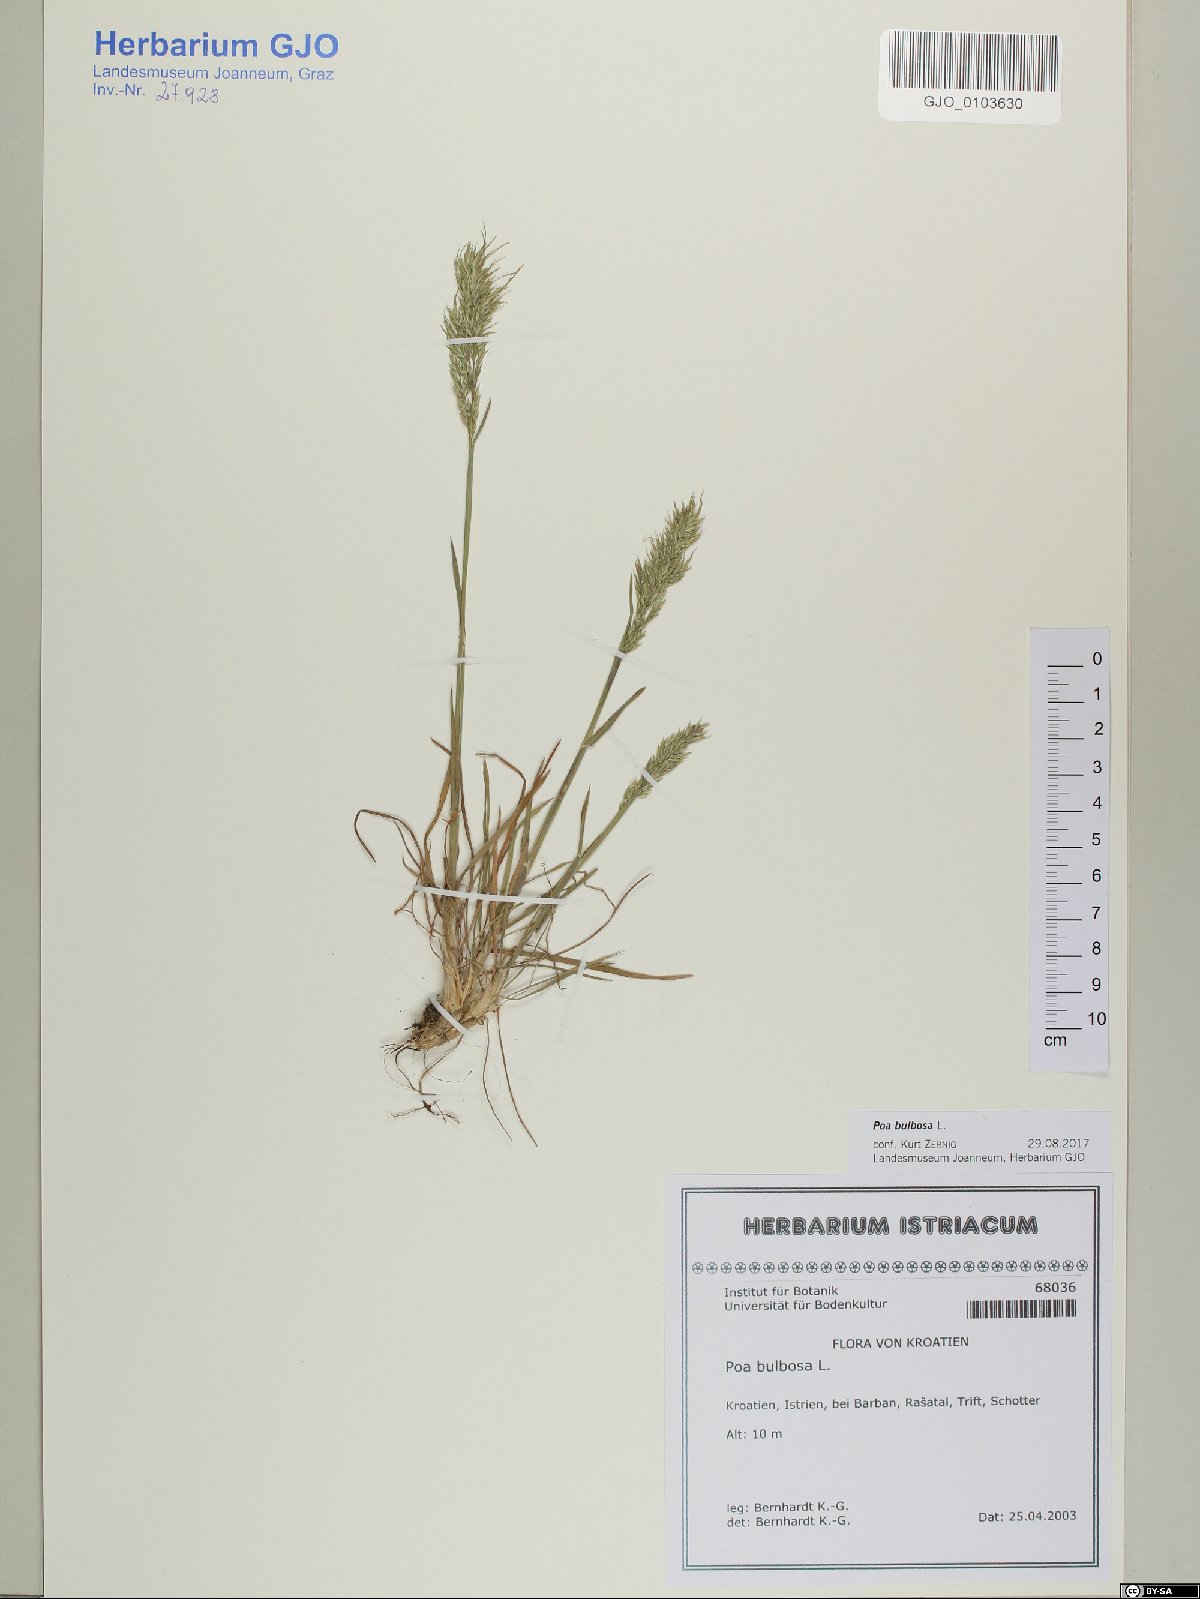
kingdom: Plantae
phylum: Tracheophyta
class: Liliopsida
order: Poales
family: Poaceae
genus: Poa
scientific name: Poa bulbosa
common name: Bulbous bluegrass
